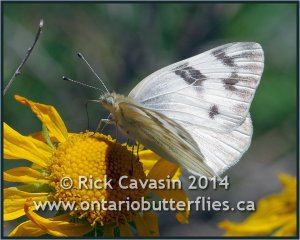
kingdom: Animalia
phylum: Arthropoda
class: Insecta
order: Lepidoptera
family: Pieridae
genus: Pontia
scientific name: Pontia protodice
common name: Checkered White
